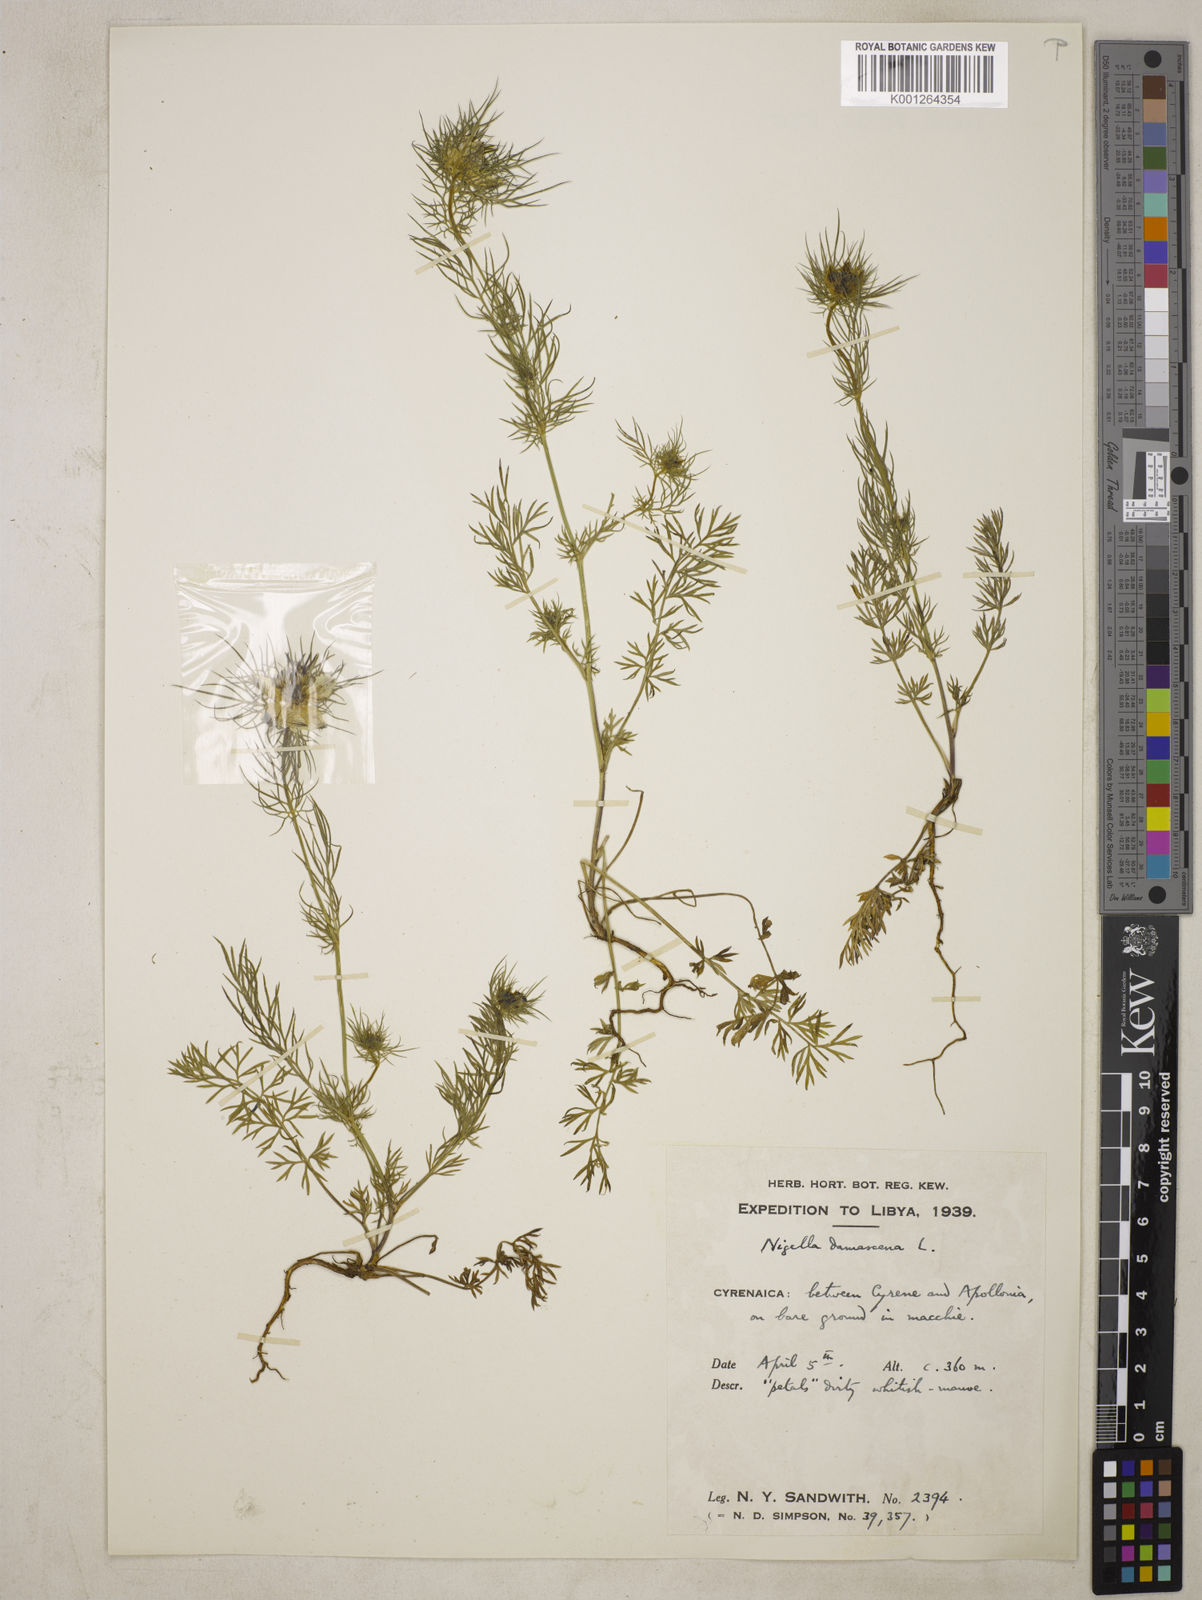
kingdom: Plantae
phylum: Tracheophyta
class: Magnoliopsida
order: Ranunculales
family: Ranunculaceae
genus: Nigella
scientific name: Nigella damascena
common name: Love-in-a-mist
